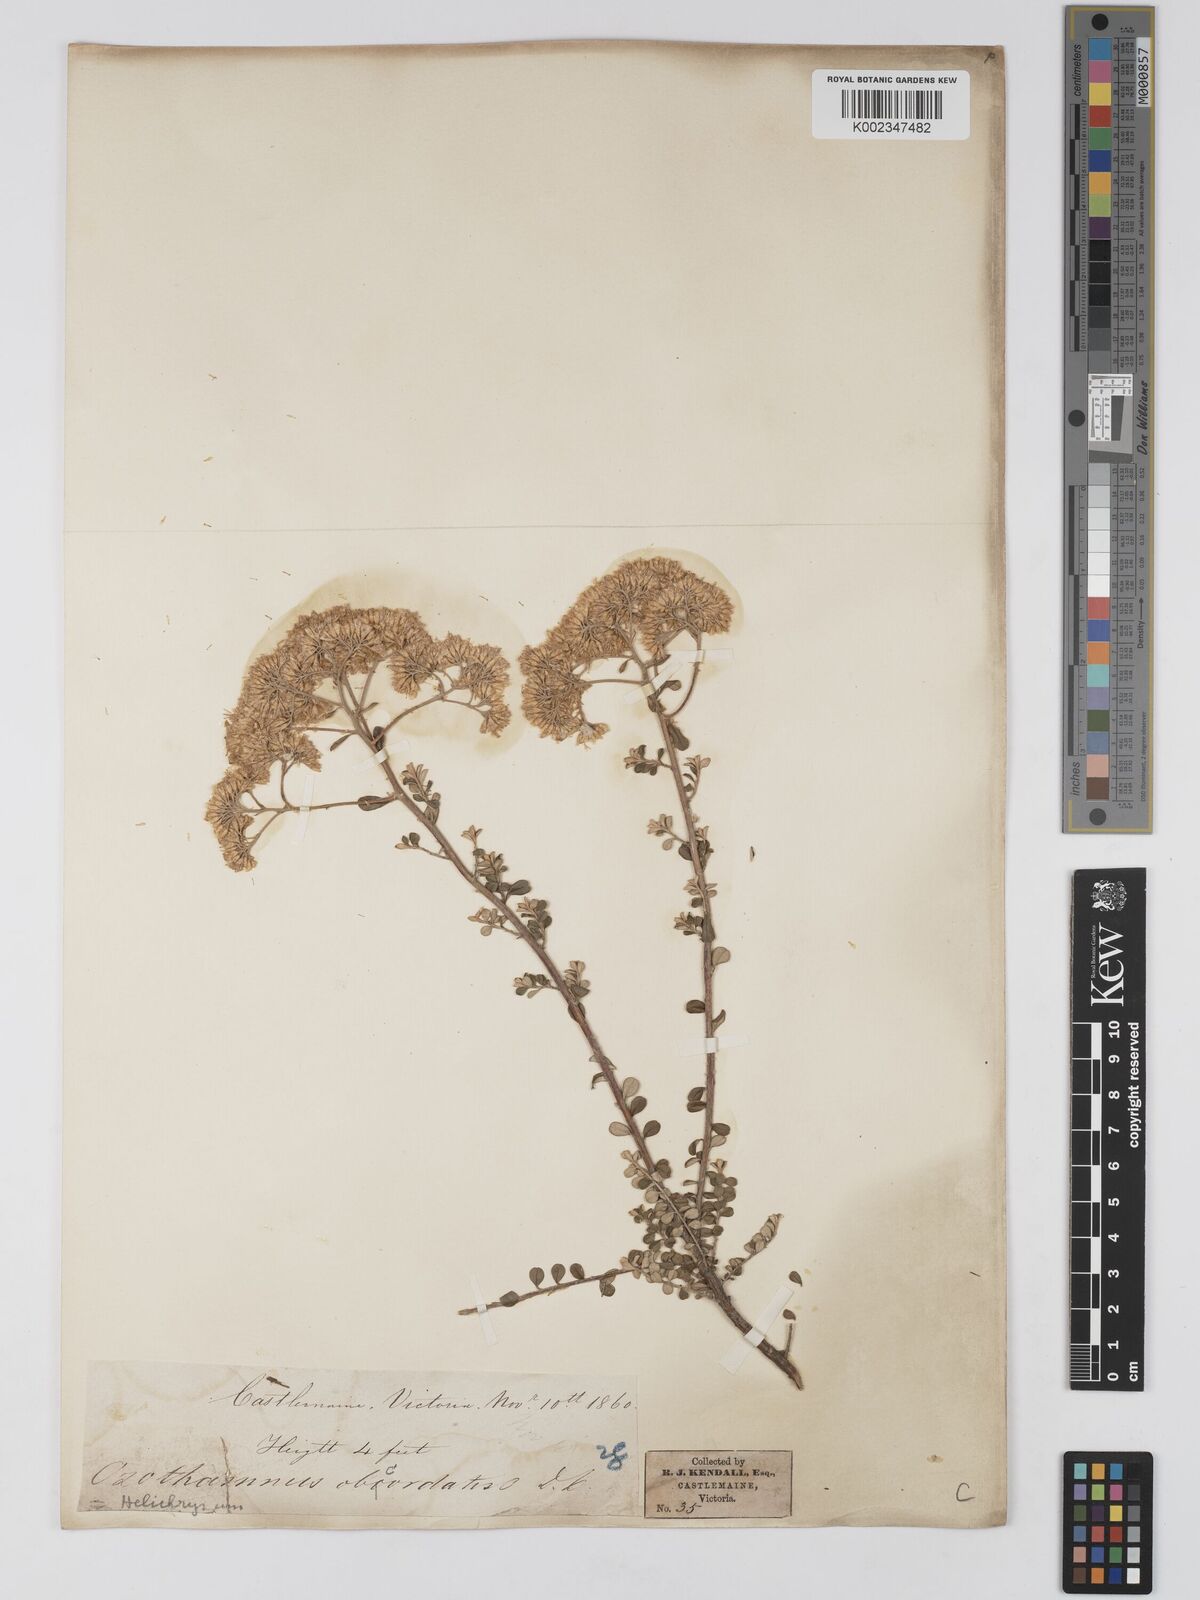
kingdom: Plantae
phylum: Tracheophyta
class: Magnoliopsida
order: Asterales
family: Asteraceae
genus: Ozothamnus
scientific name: Ozothamnus
